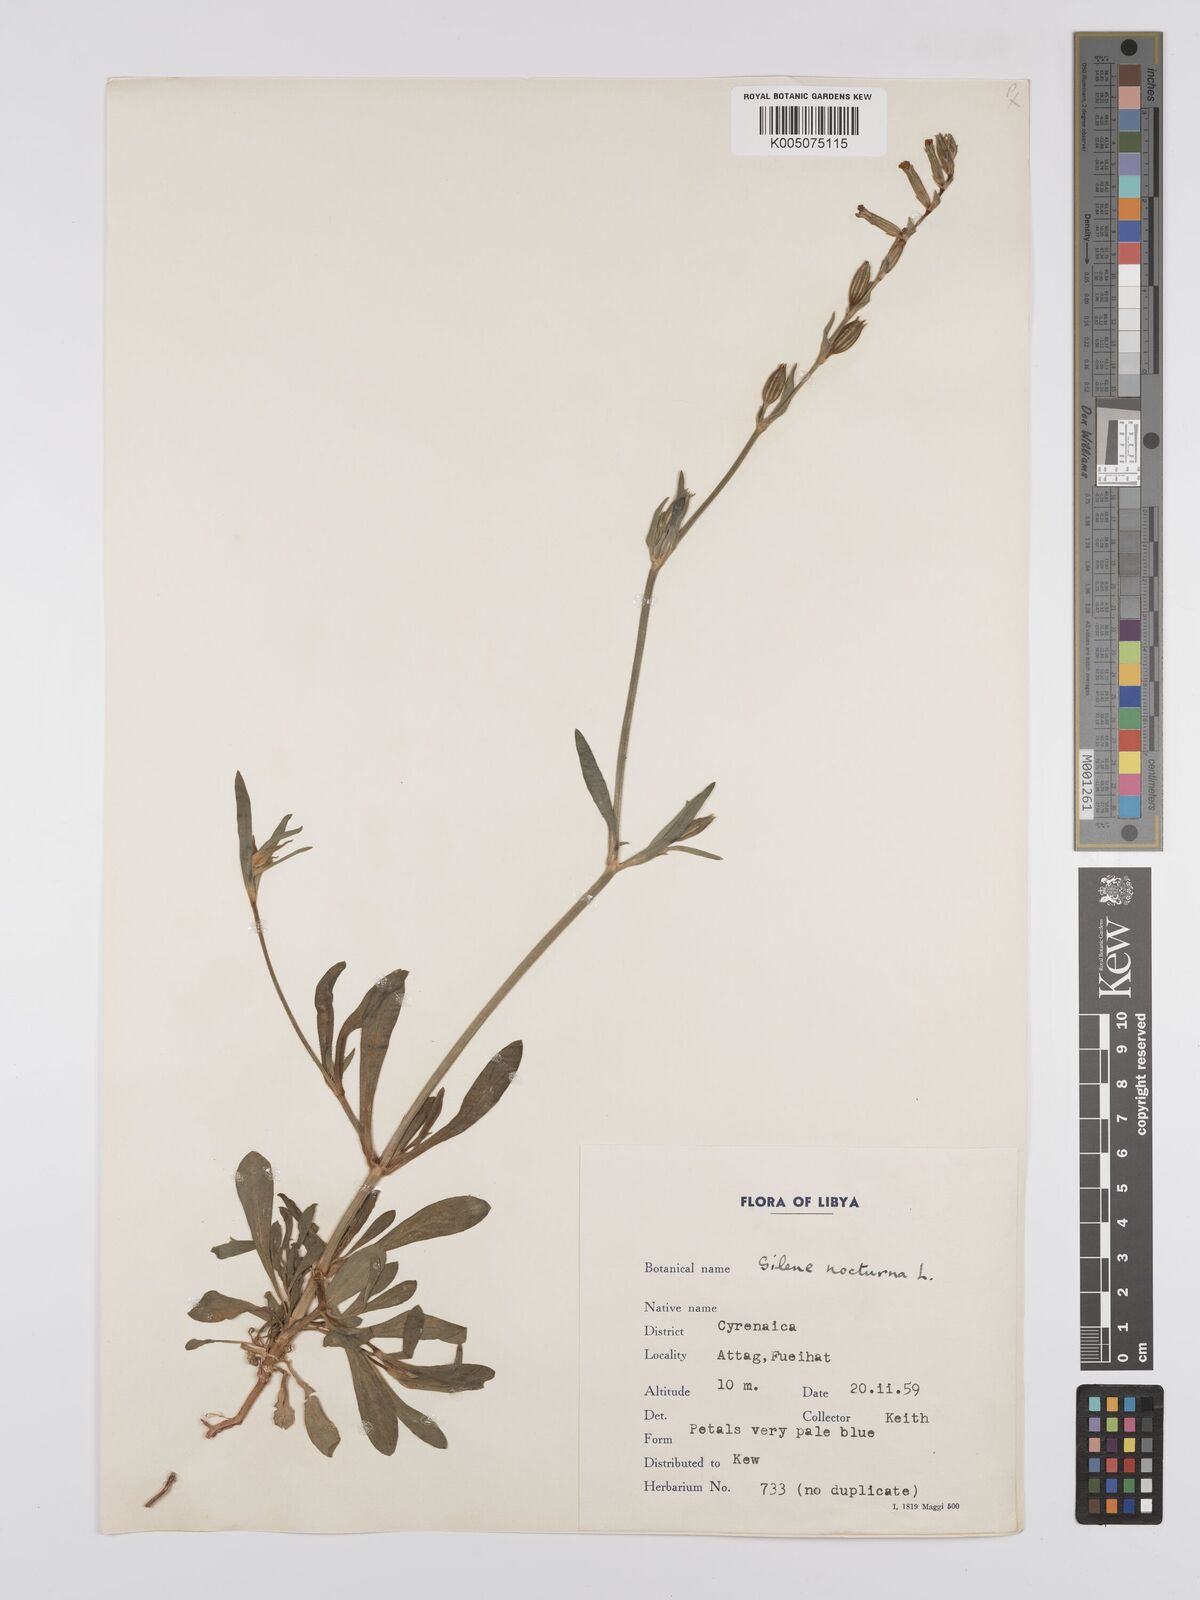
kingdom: Plantae
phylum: Tracheophyta
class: Magnoliopsida
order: Caryophyllales
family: Caryophyllaceae
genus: Silene
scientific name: Silene nocturna
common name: Mediterranean catchfly
